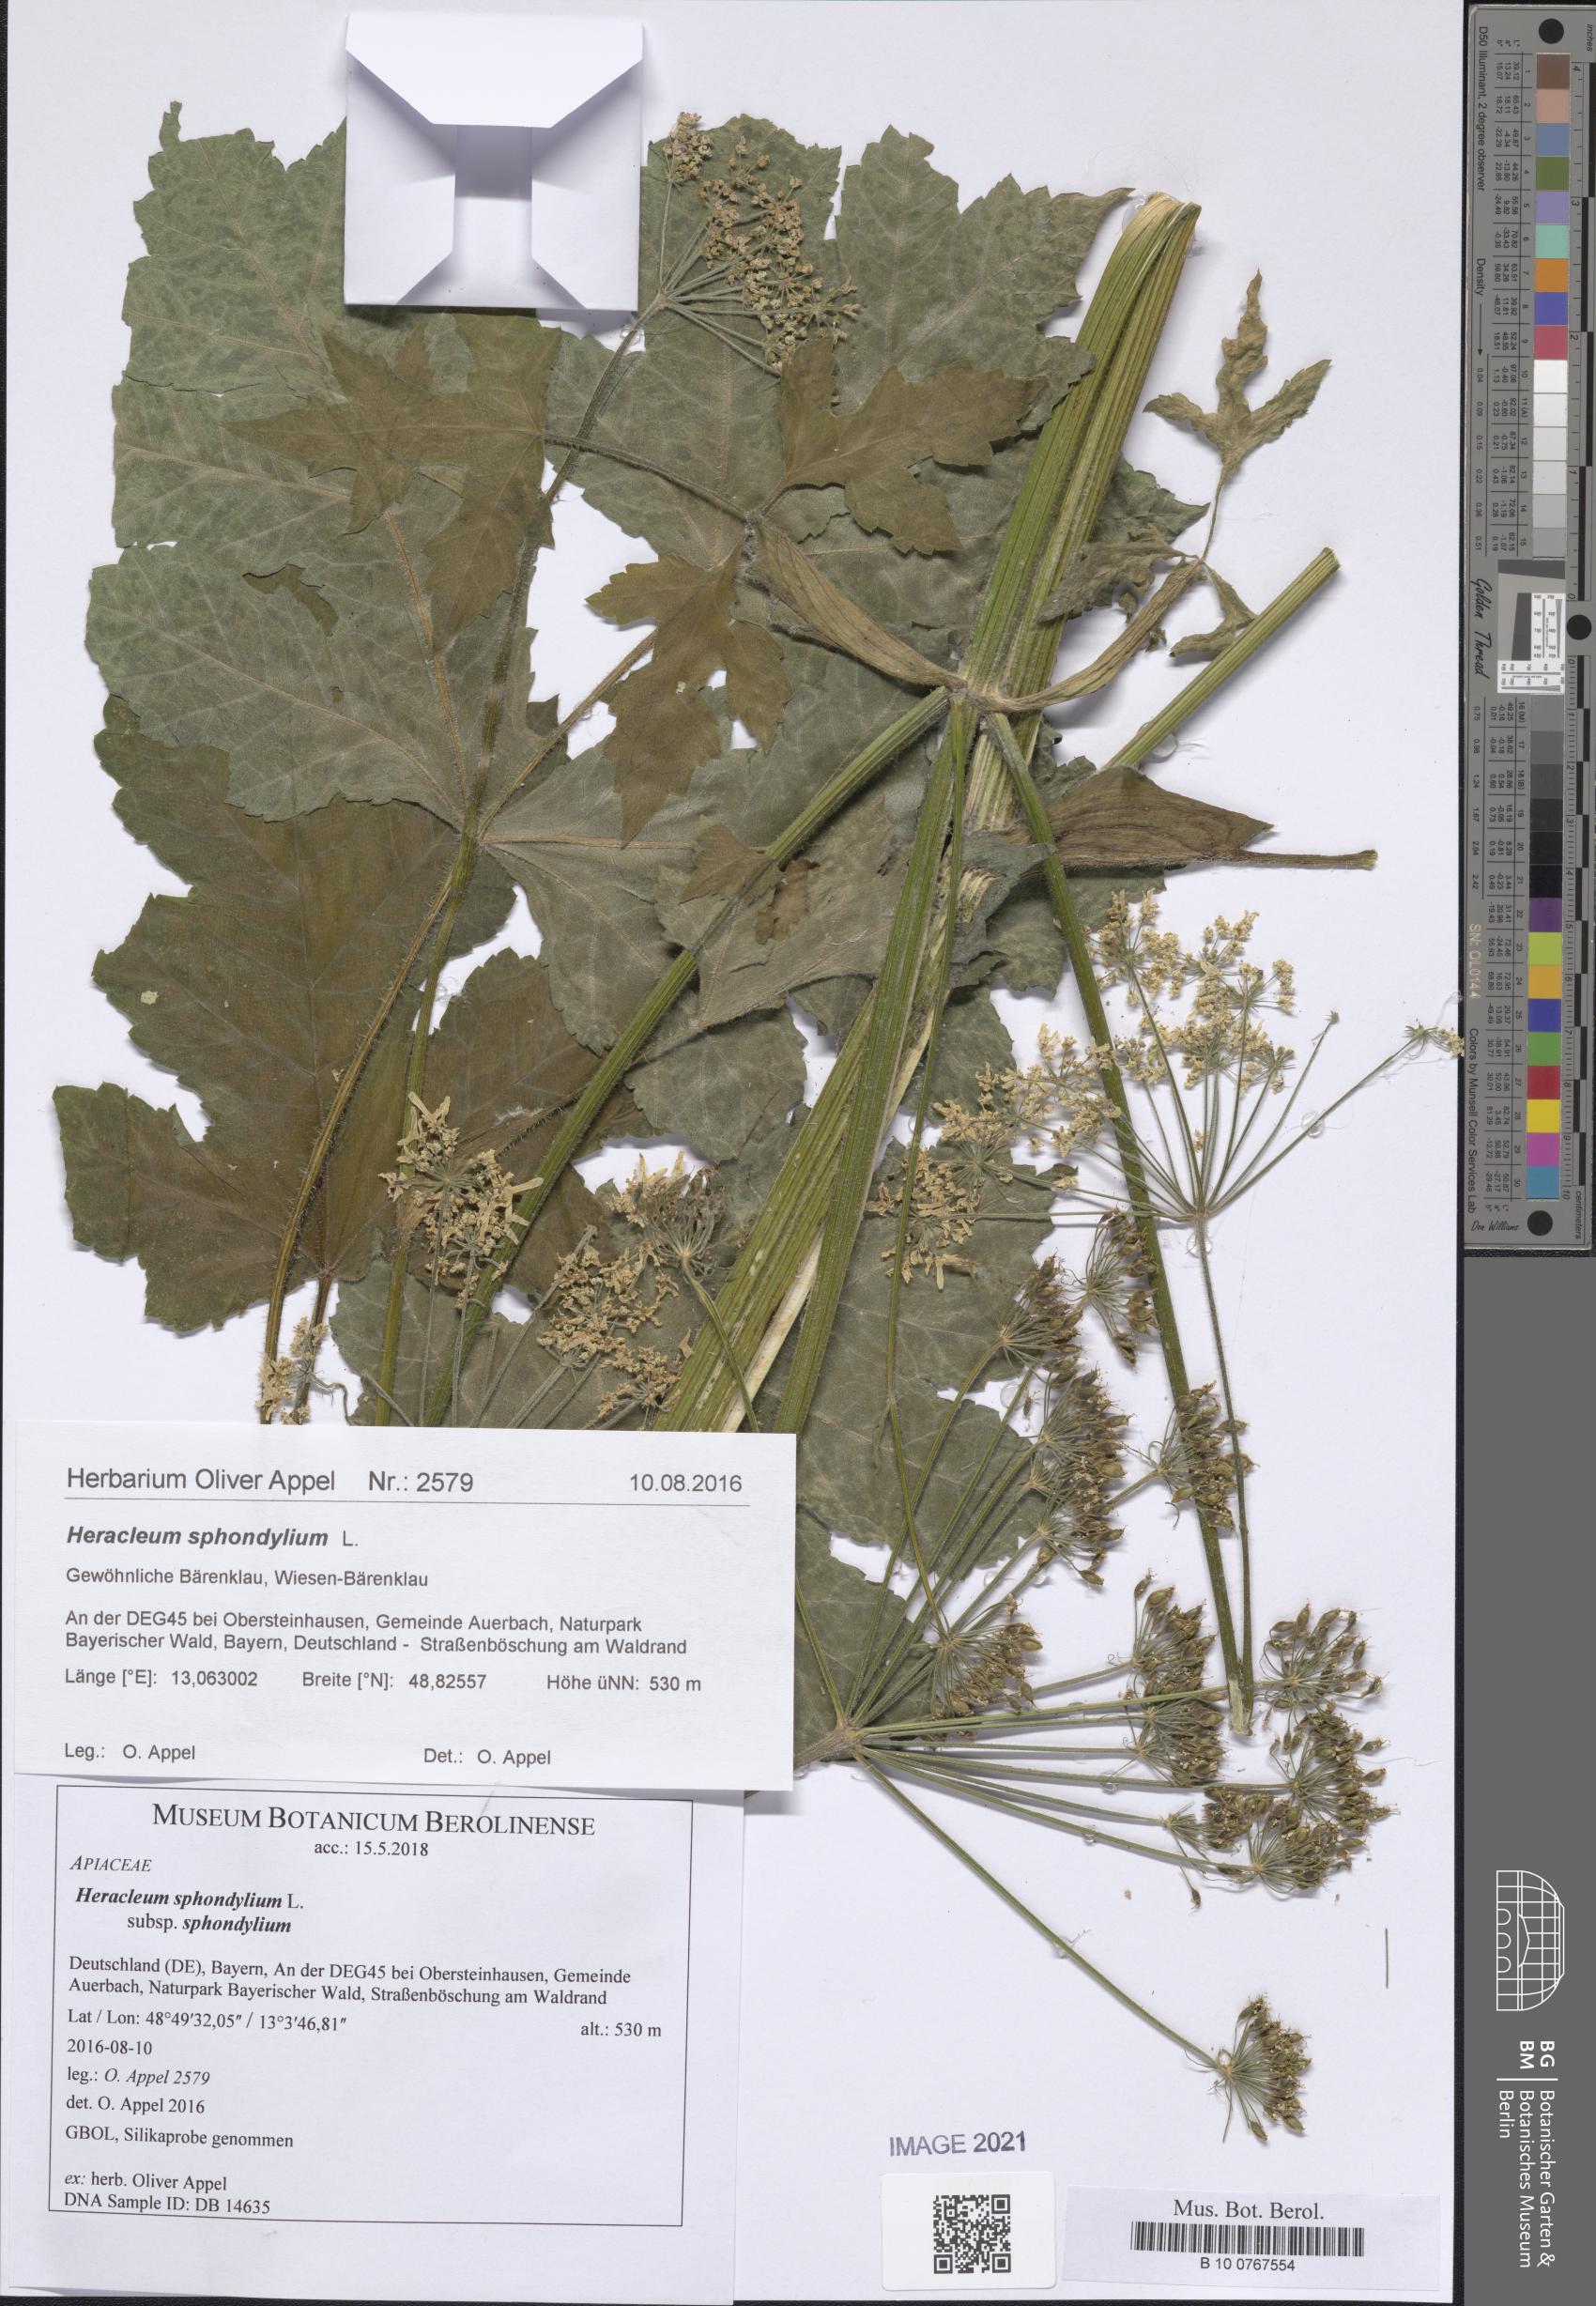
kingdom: Plantae
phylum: Tracheophyta
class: Magnoliopsida
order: Apiales
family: Apiaceae
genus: Heracleum
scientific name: Heracleum sphondylium
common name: Hogweed
